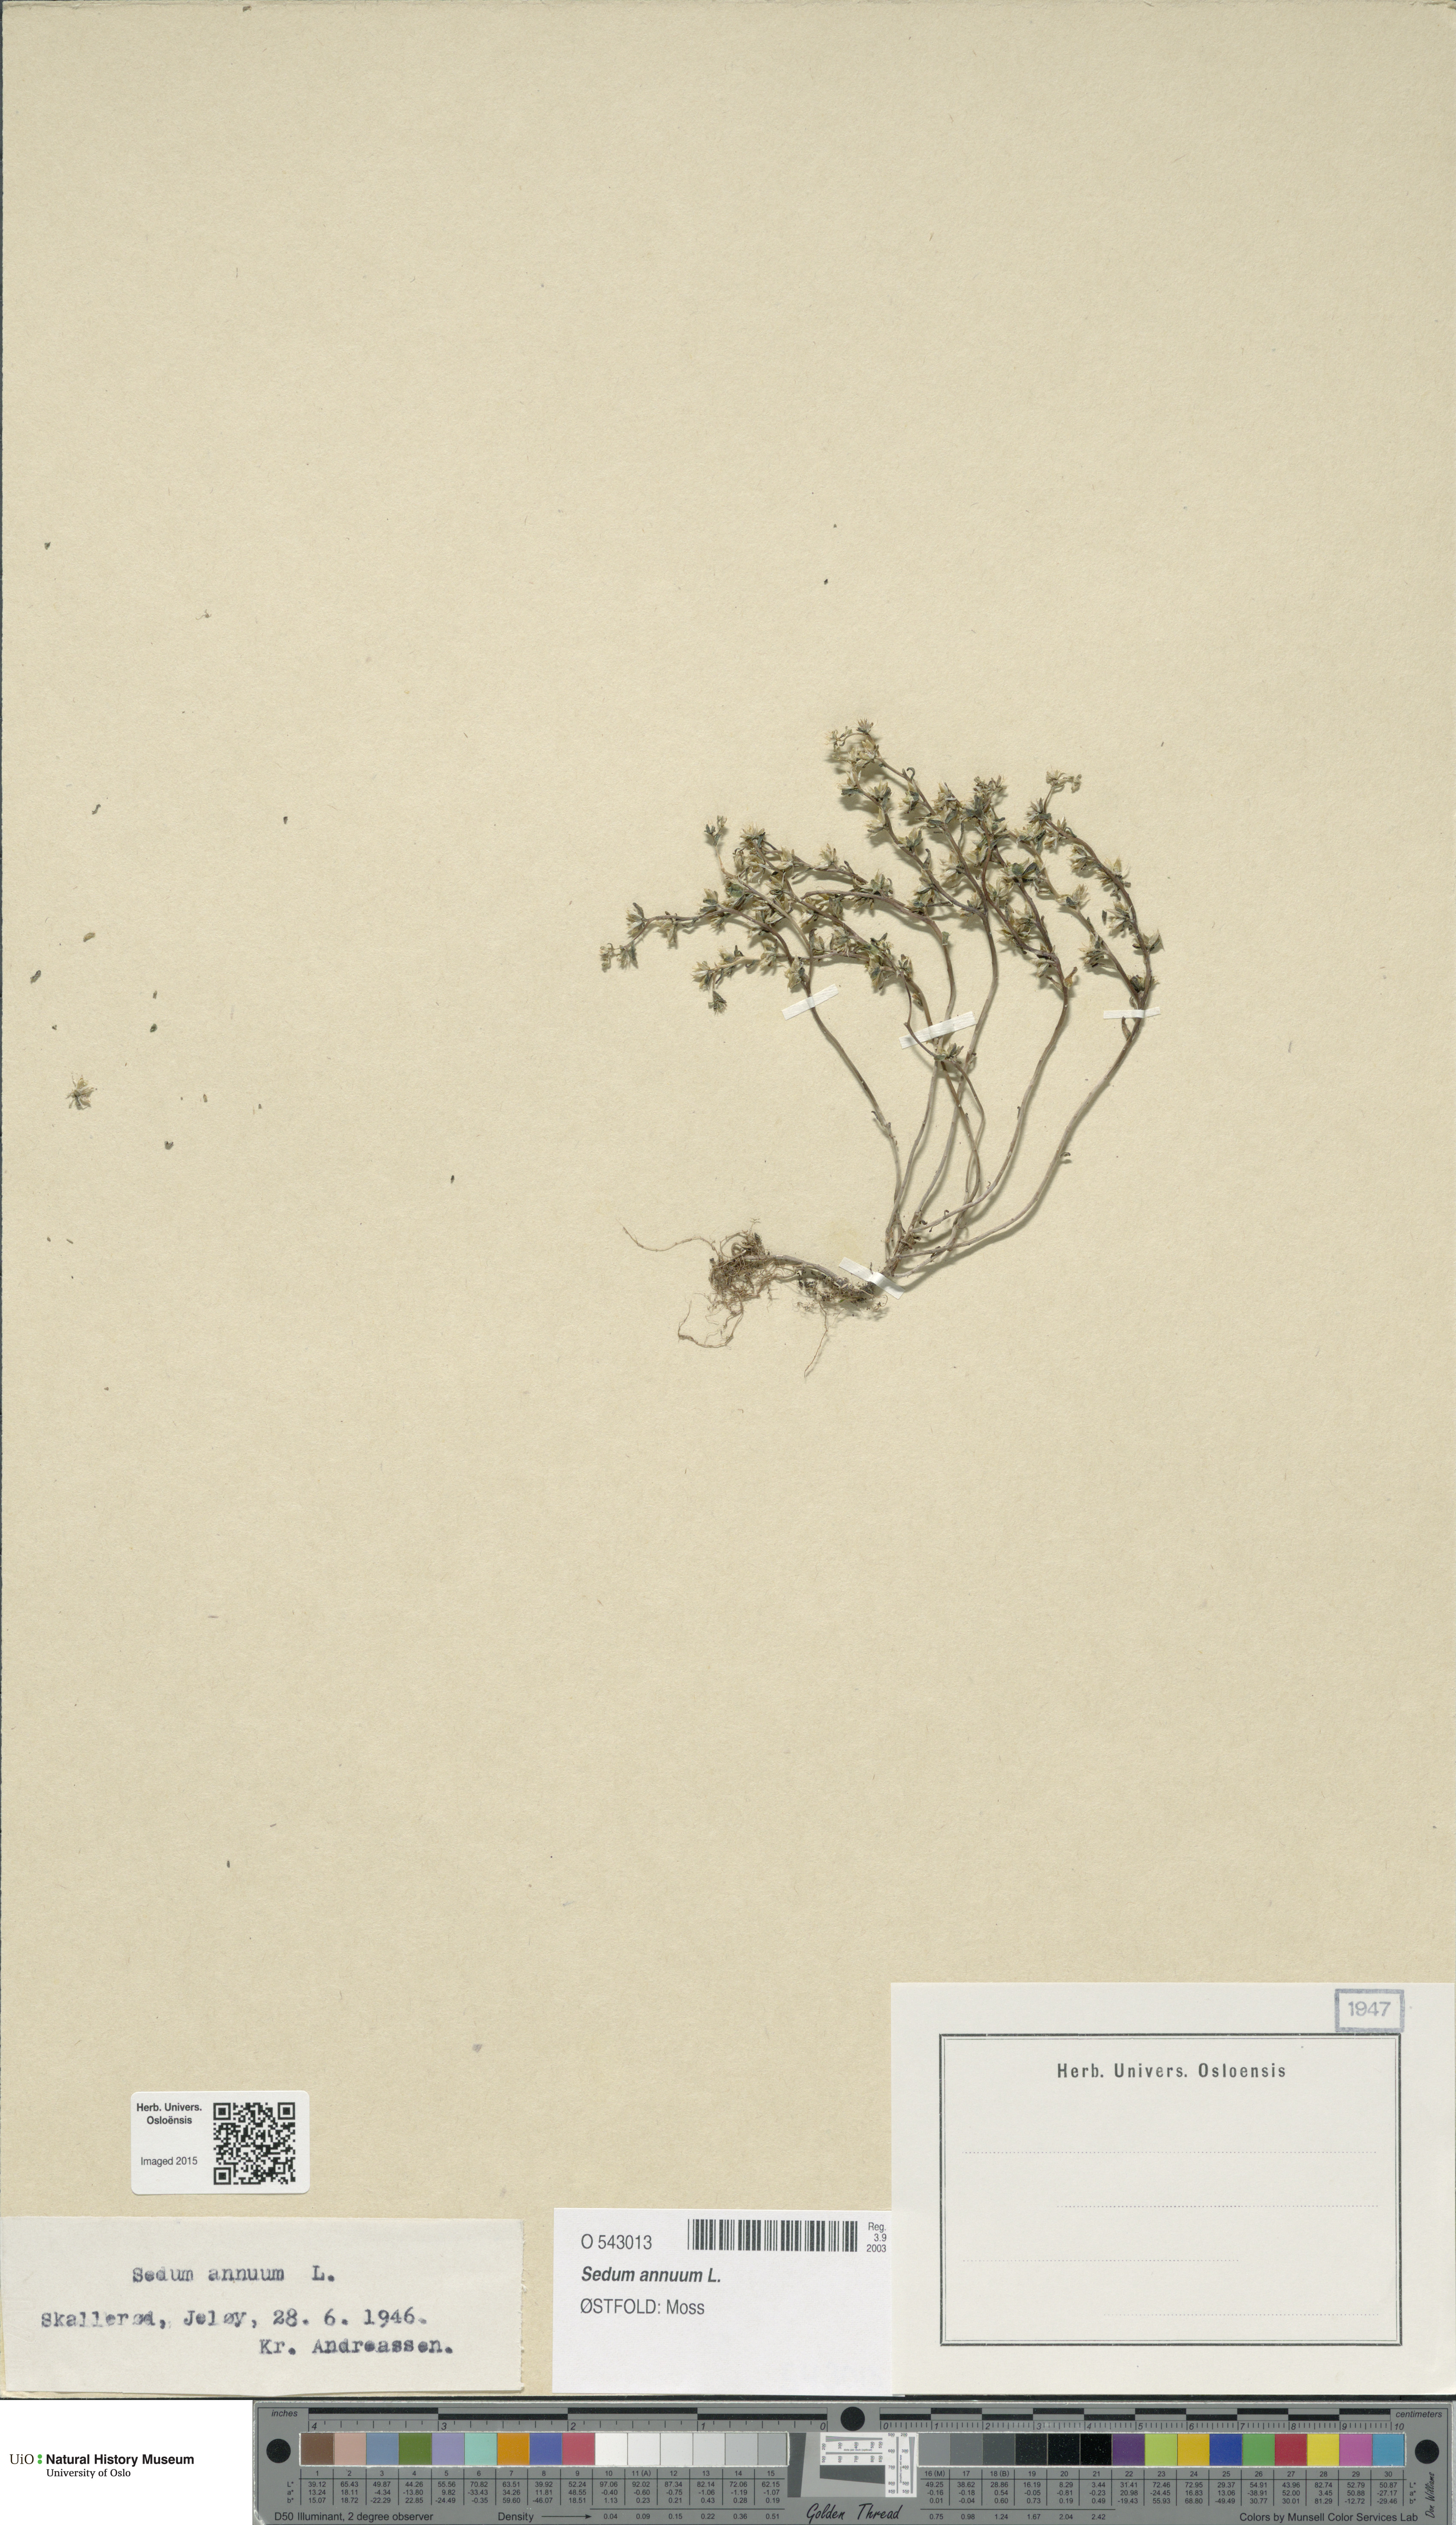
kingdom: Plantae
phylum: Tracheophyta
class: Magnoliopsida
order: Saxifragales
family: Crassulaceae
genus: Sedum
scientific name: Sedum annuum
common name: Annual stonecrop
